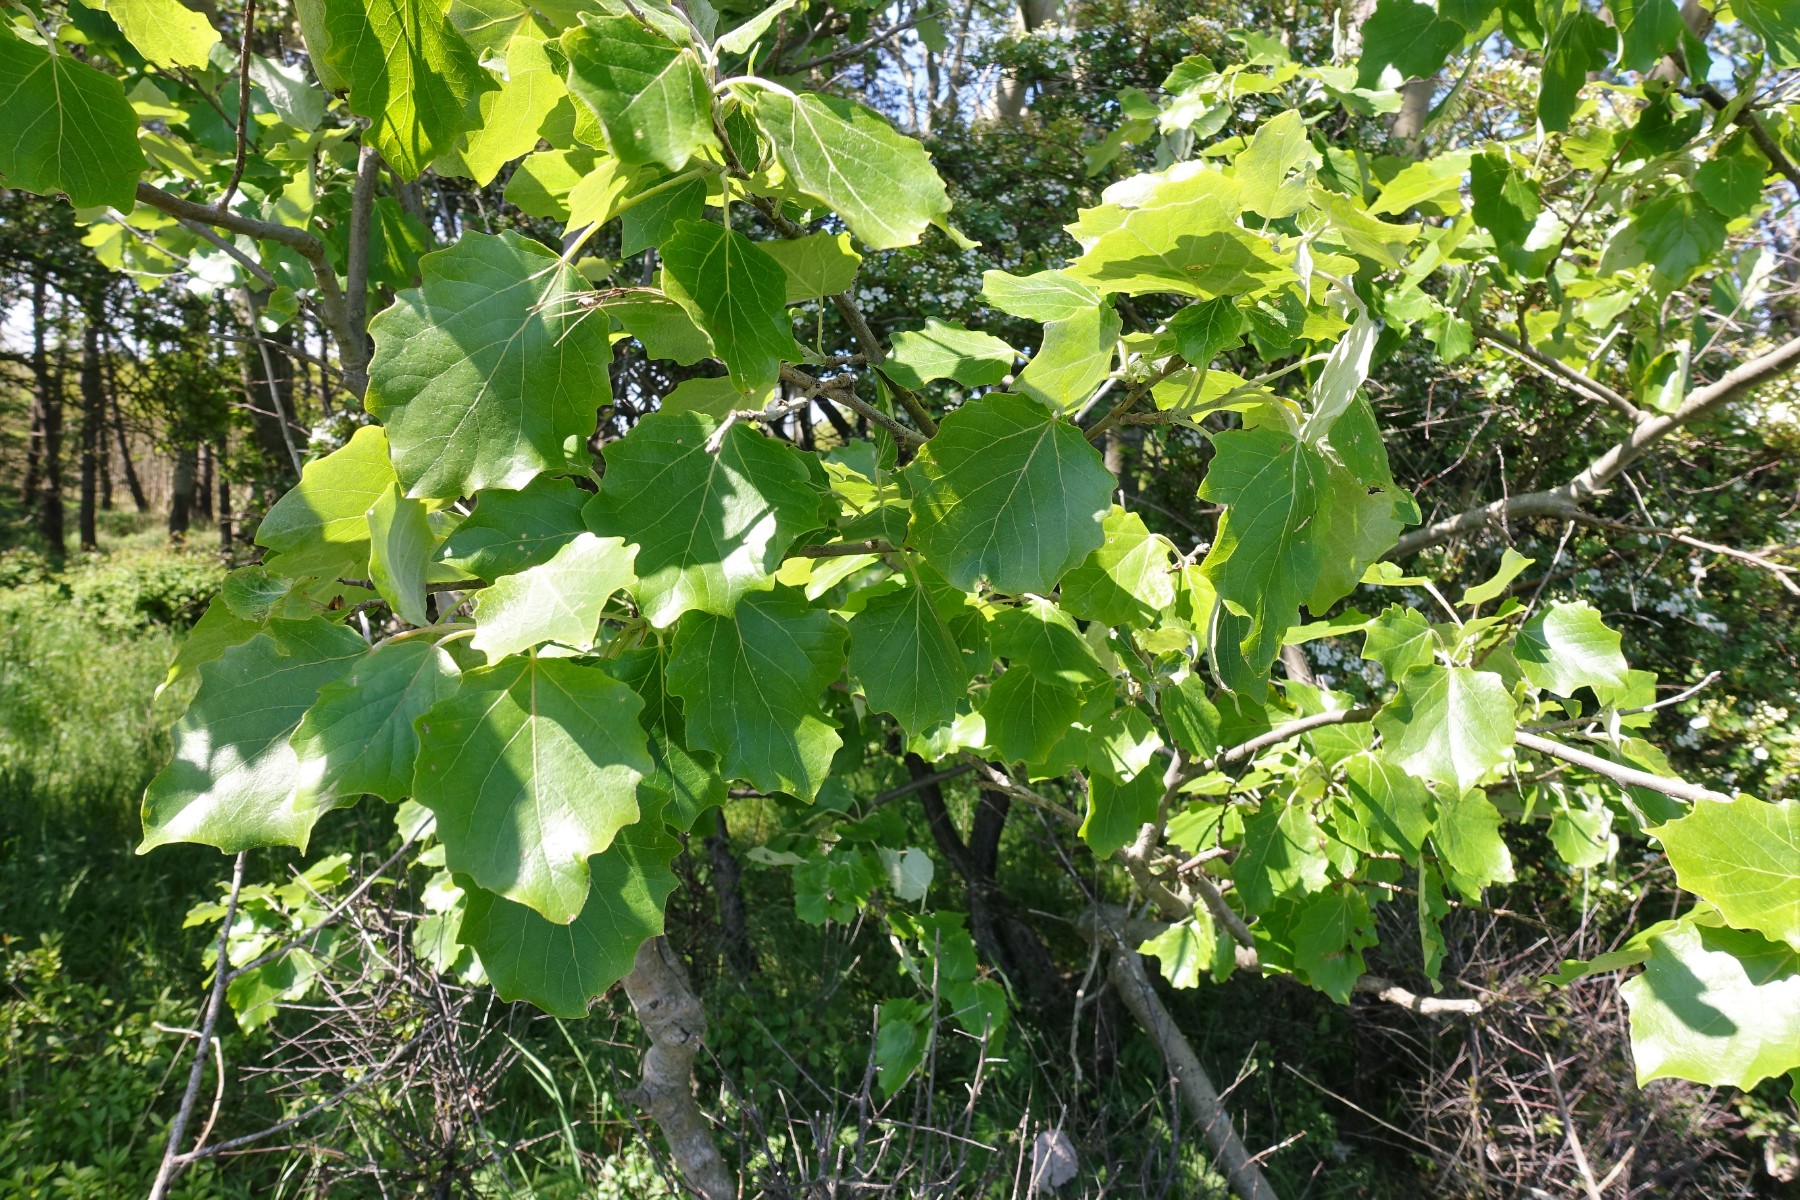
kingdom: Fungi
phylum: Basidiomycota
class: Agaricomycetes
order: Hymenochaetales
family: Hymenochaetaceae
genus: Phellinus
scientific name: Phellinus populicola
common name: poppel-ildporesvamp
